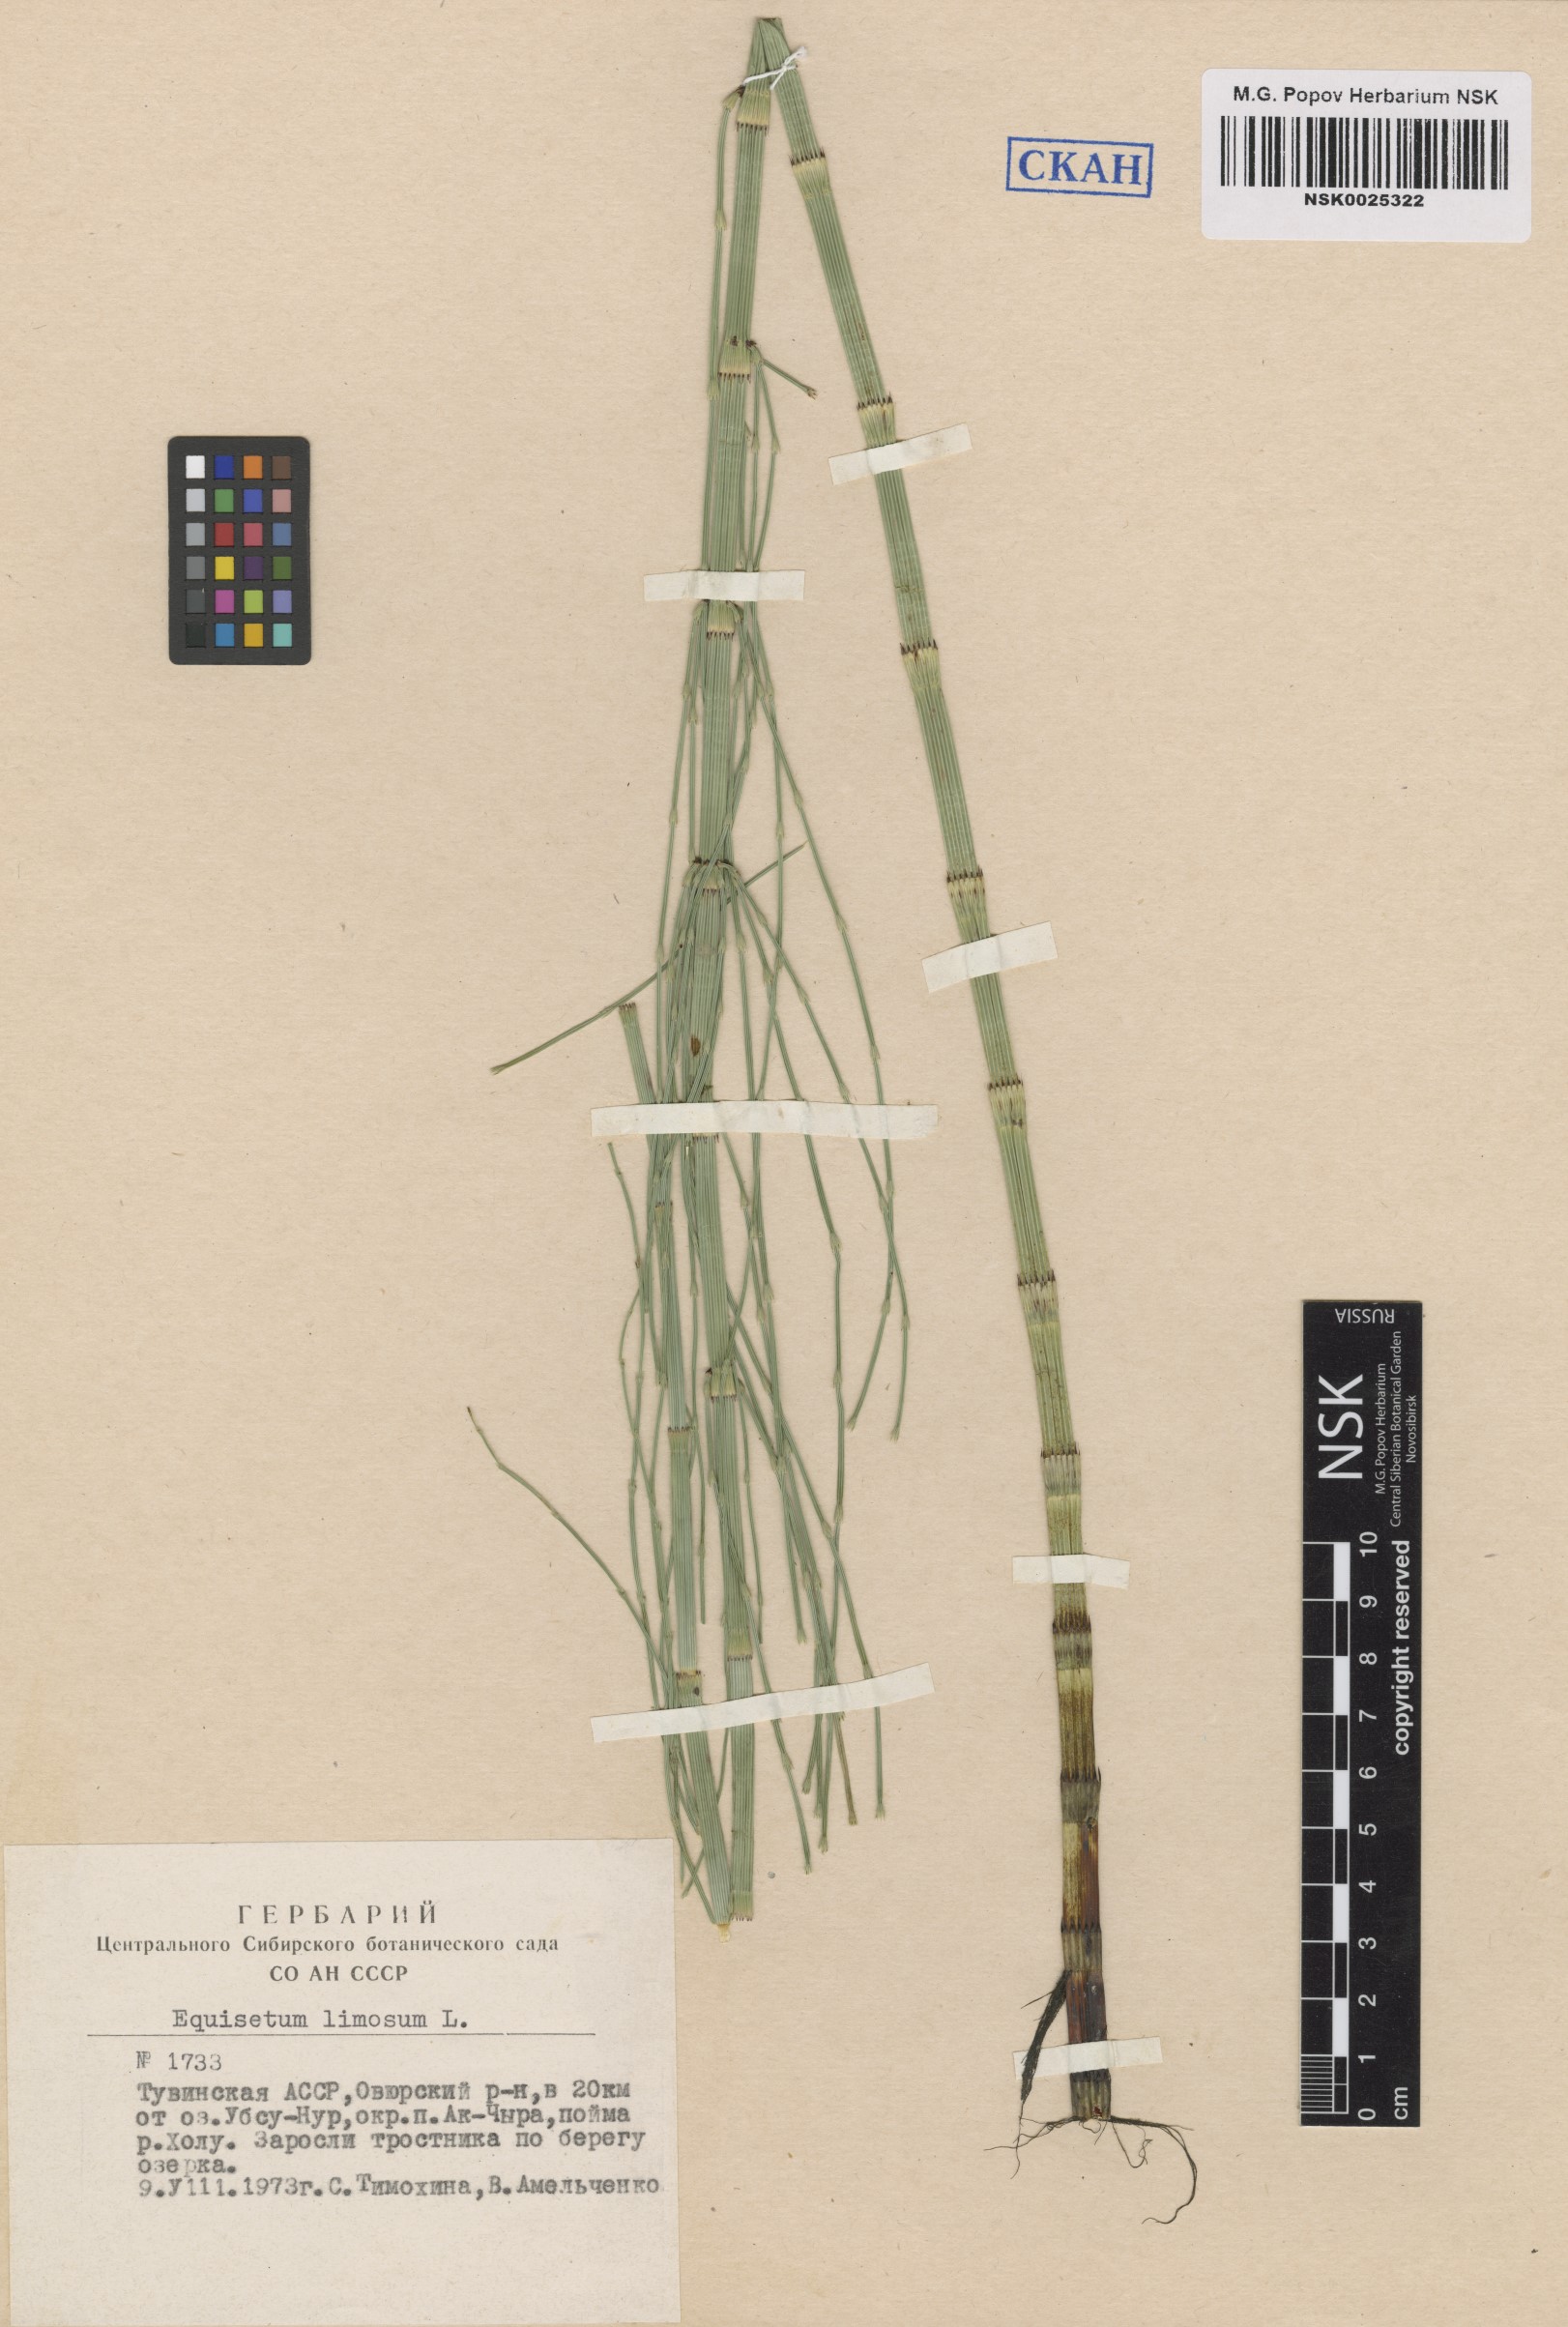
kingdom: Plantae
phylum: Tracheophyta
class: Polypodiopsida
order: Equisetales
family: Equisetaceae
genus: Equisetum
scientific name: Equisetum fluviatile
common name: Water horsetail
